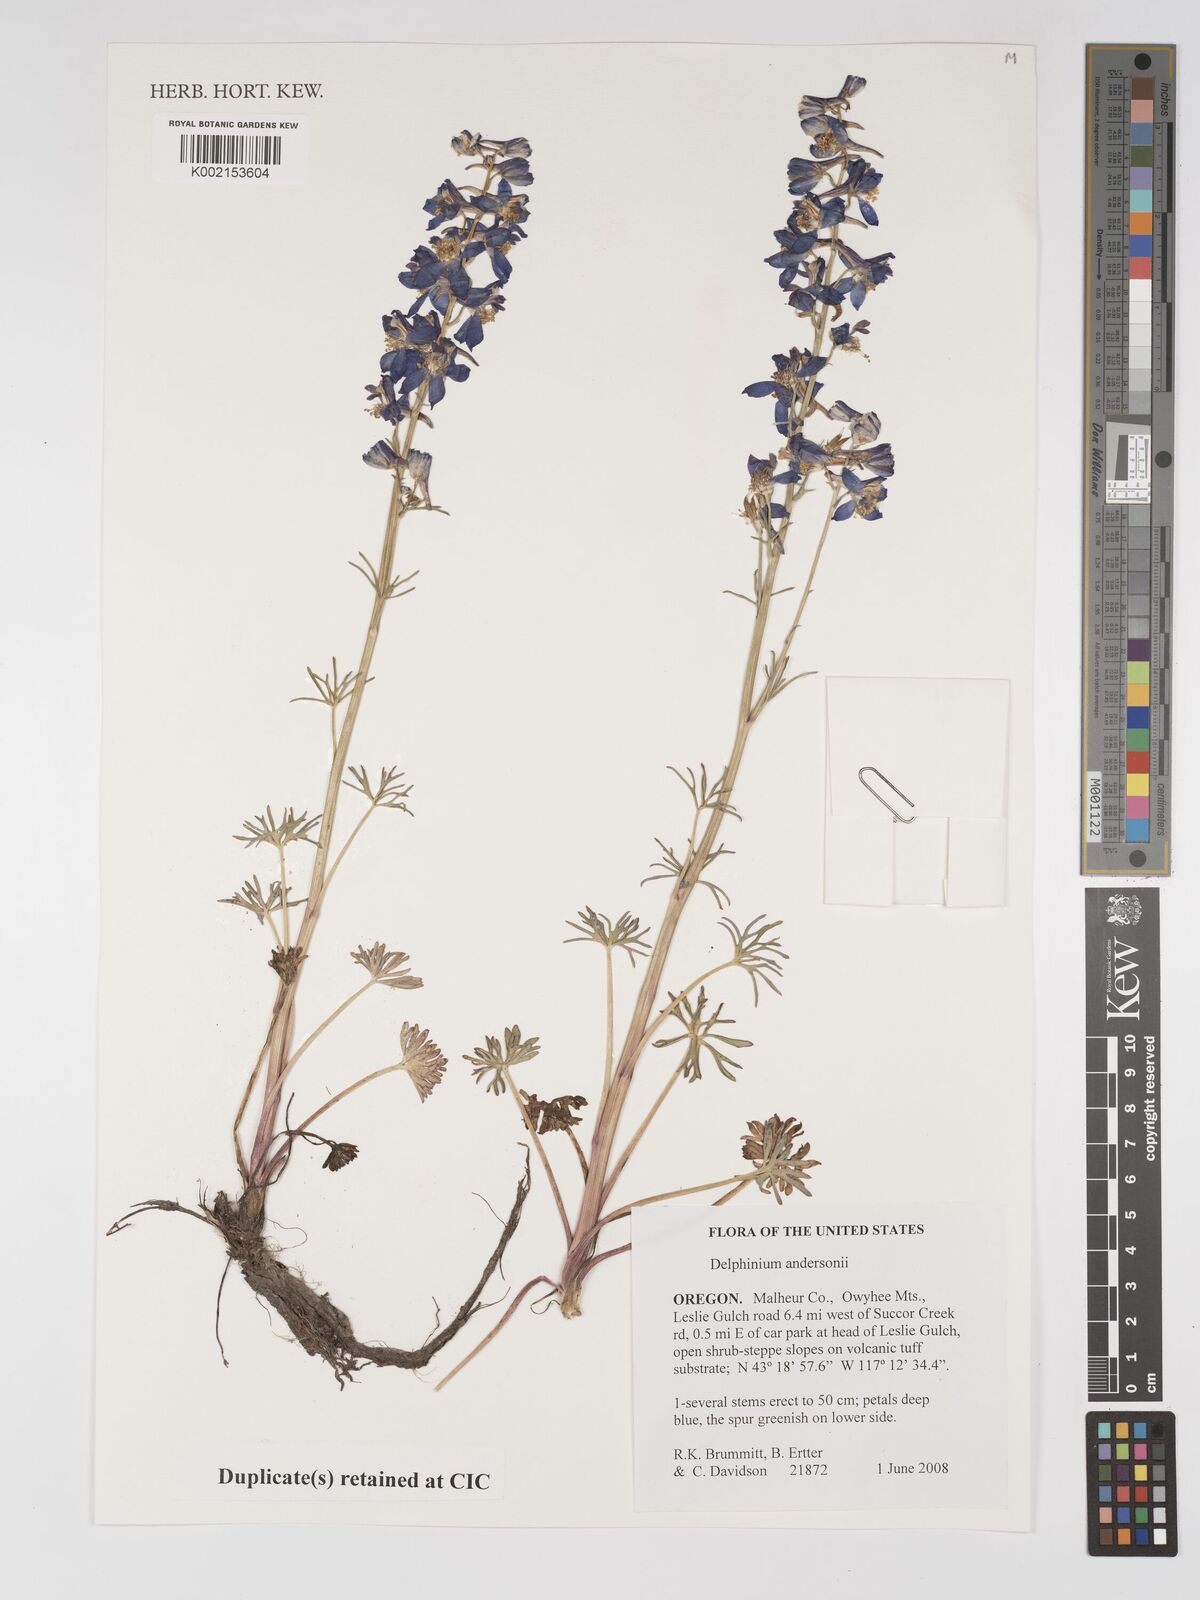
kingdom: Plantae
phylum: Tracheophyta
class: Magnoliopsida
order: Ranunculales
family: Ranunculaceae
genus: Delphinium
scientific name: Delphinium andersonii
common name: Anderson's larkspur
